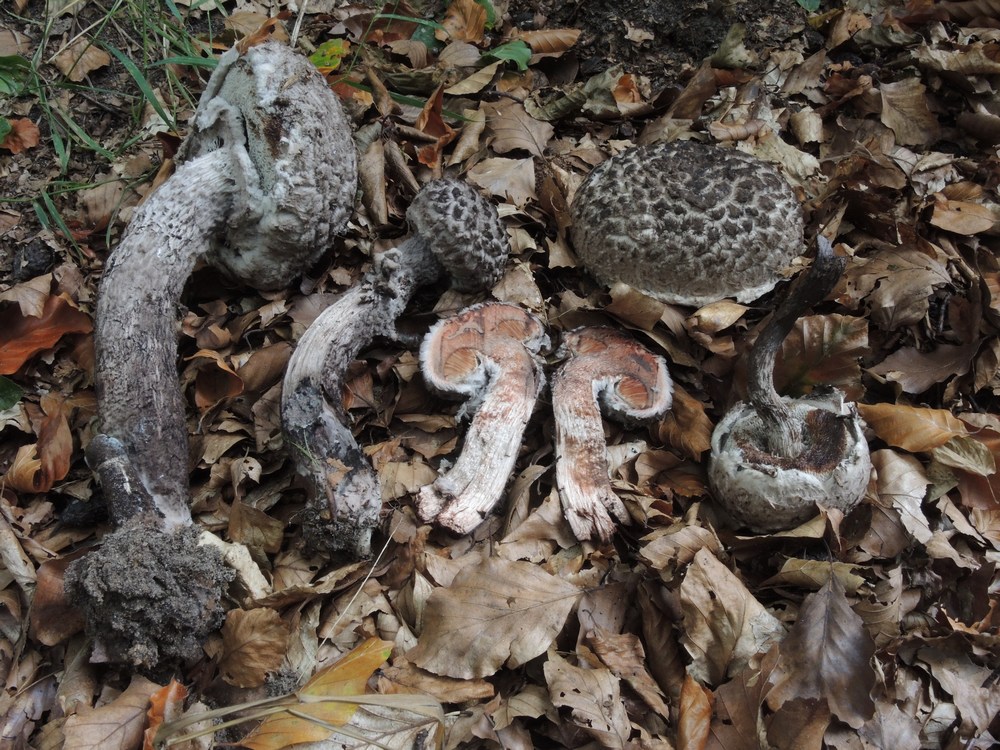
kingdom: Fungi
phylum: Basidiomycota
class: Agaricomycetes
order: Boletales
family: Boletaceae
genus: Strobilomyces
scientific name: Strobilomyces strobilaceus
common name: koglerørhat
